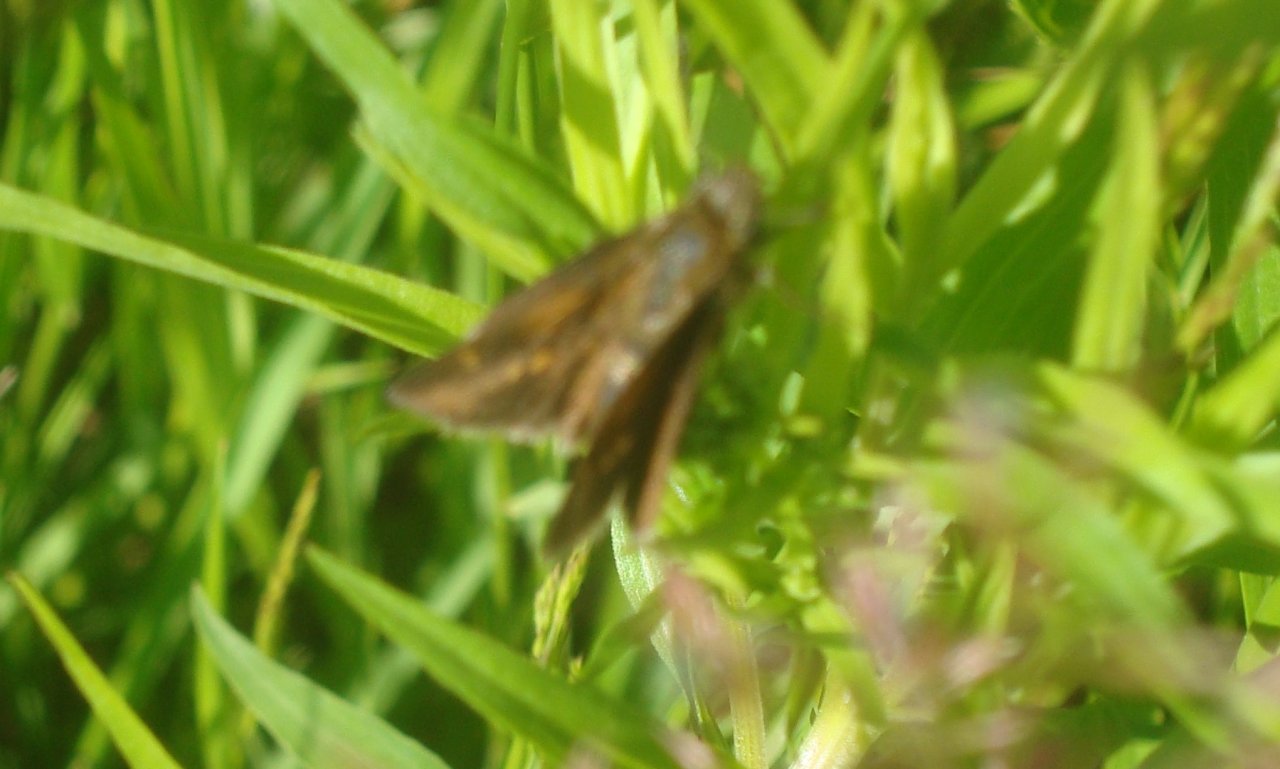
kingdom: Animalia
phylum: Arthropoda
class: Insecta
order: Lepidoptera
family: Hesperiidae
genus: Euphyes
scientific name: Euphyes vestris
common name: Dun Skipper
